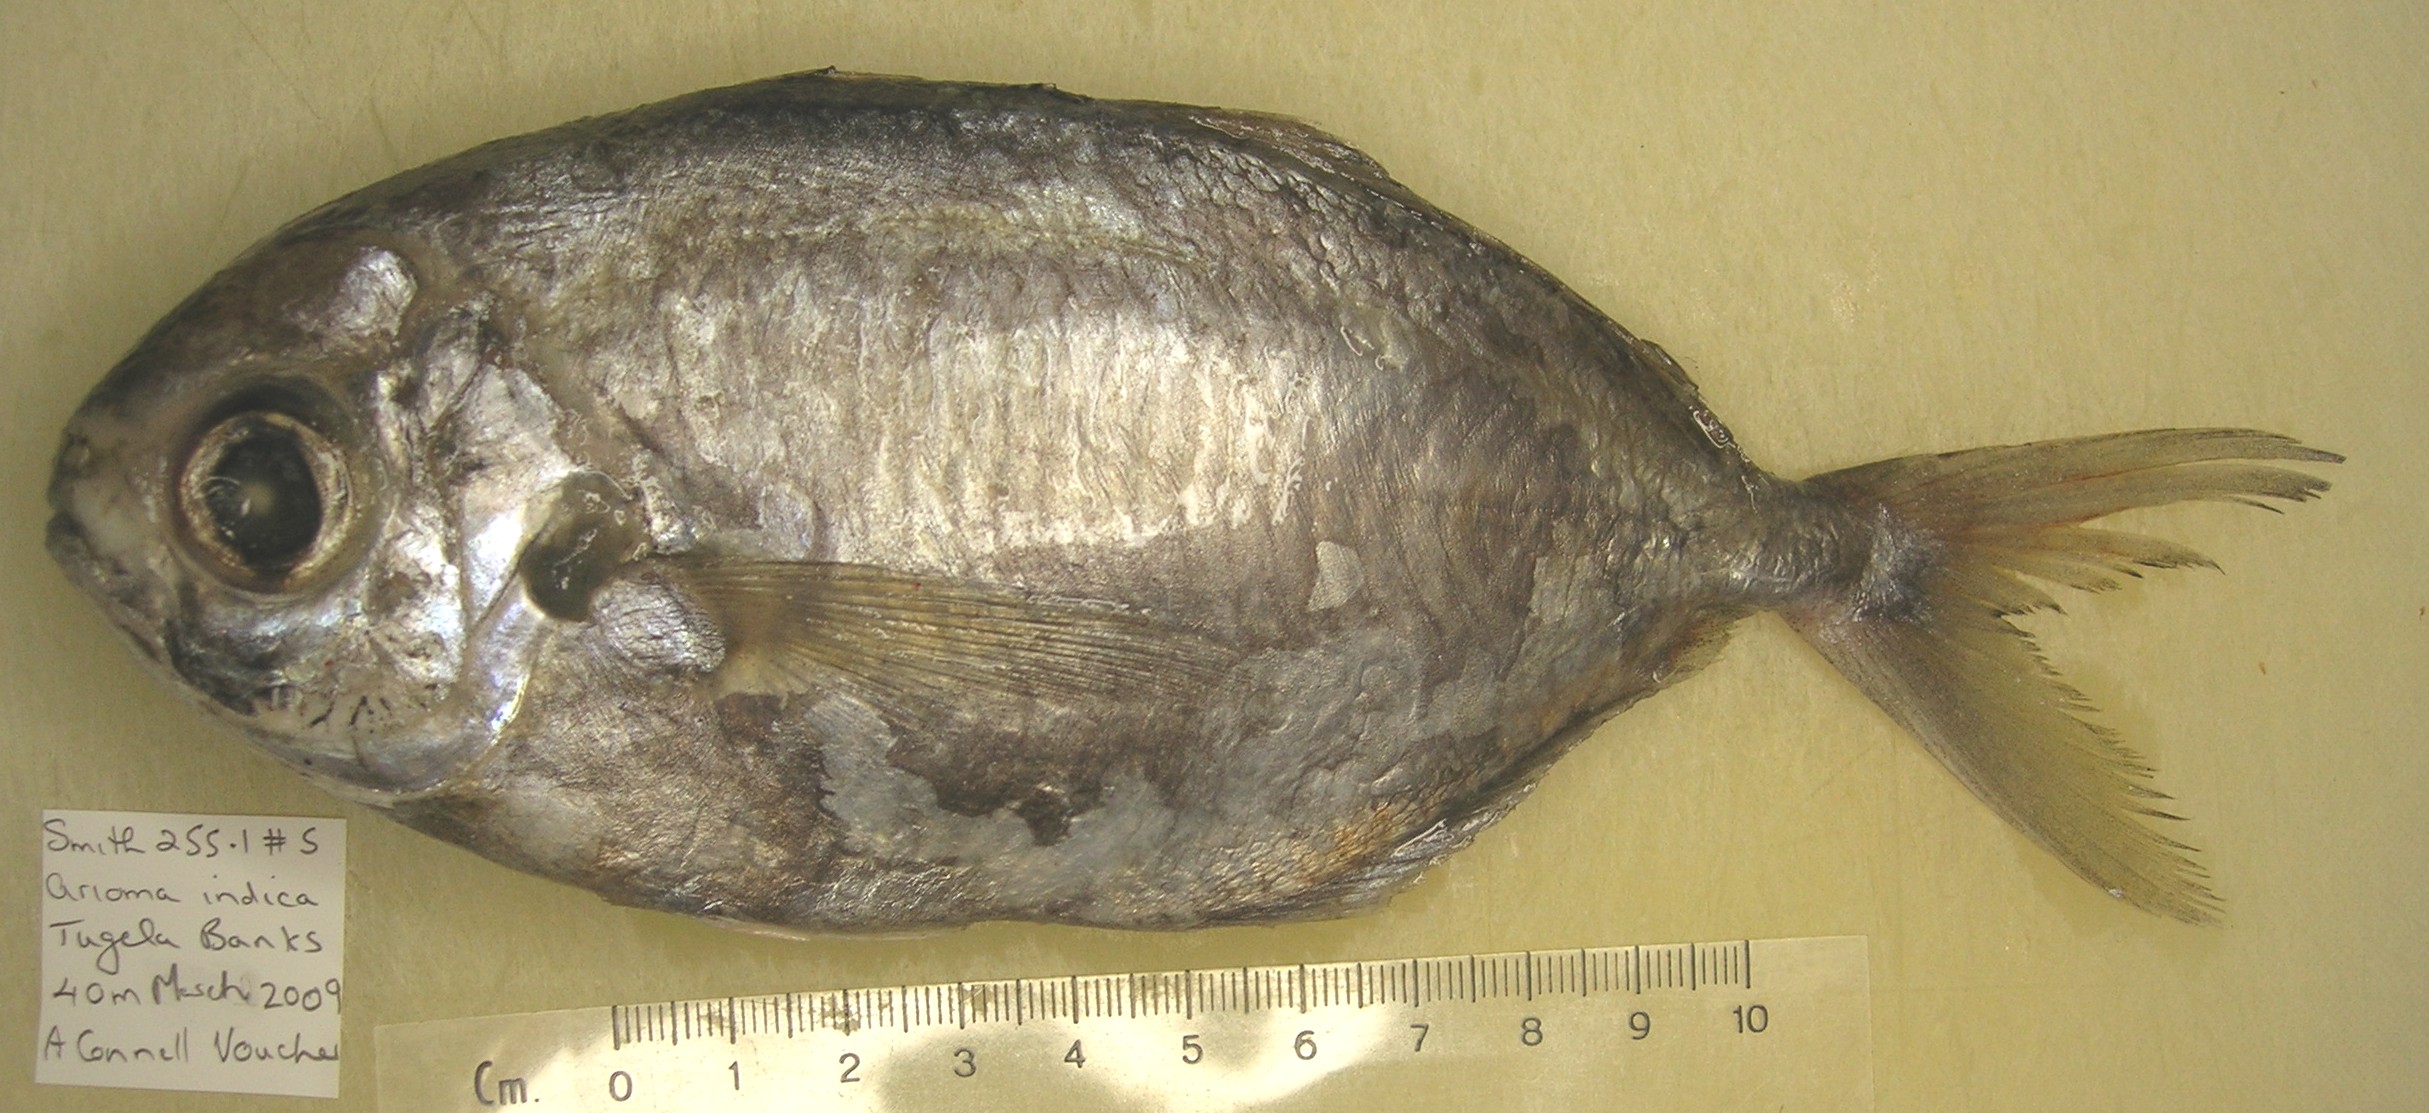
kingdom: Animalia
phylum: Chordata
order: Perciformes
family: Ariommatidae
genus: Ariomma
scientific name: Ariomma indicum
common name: Indian driftfish
